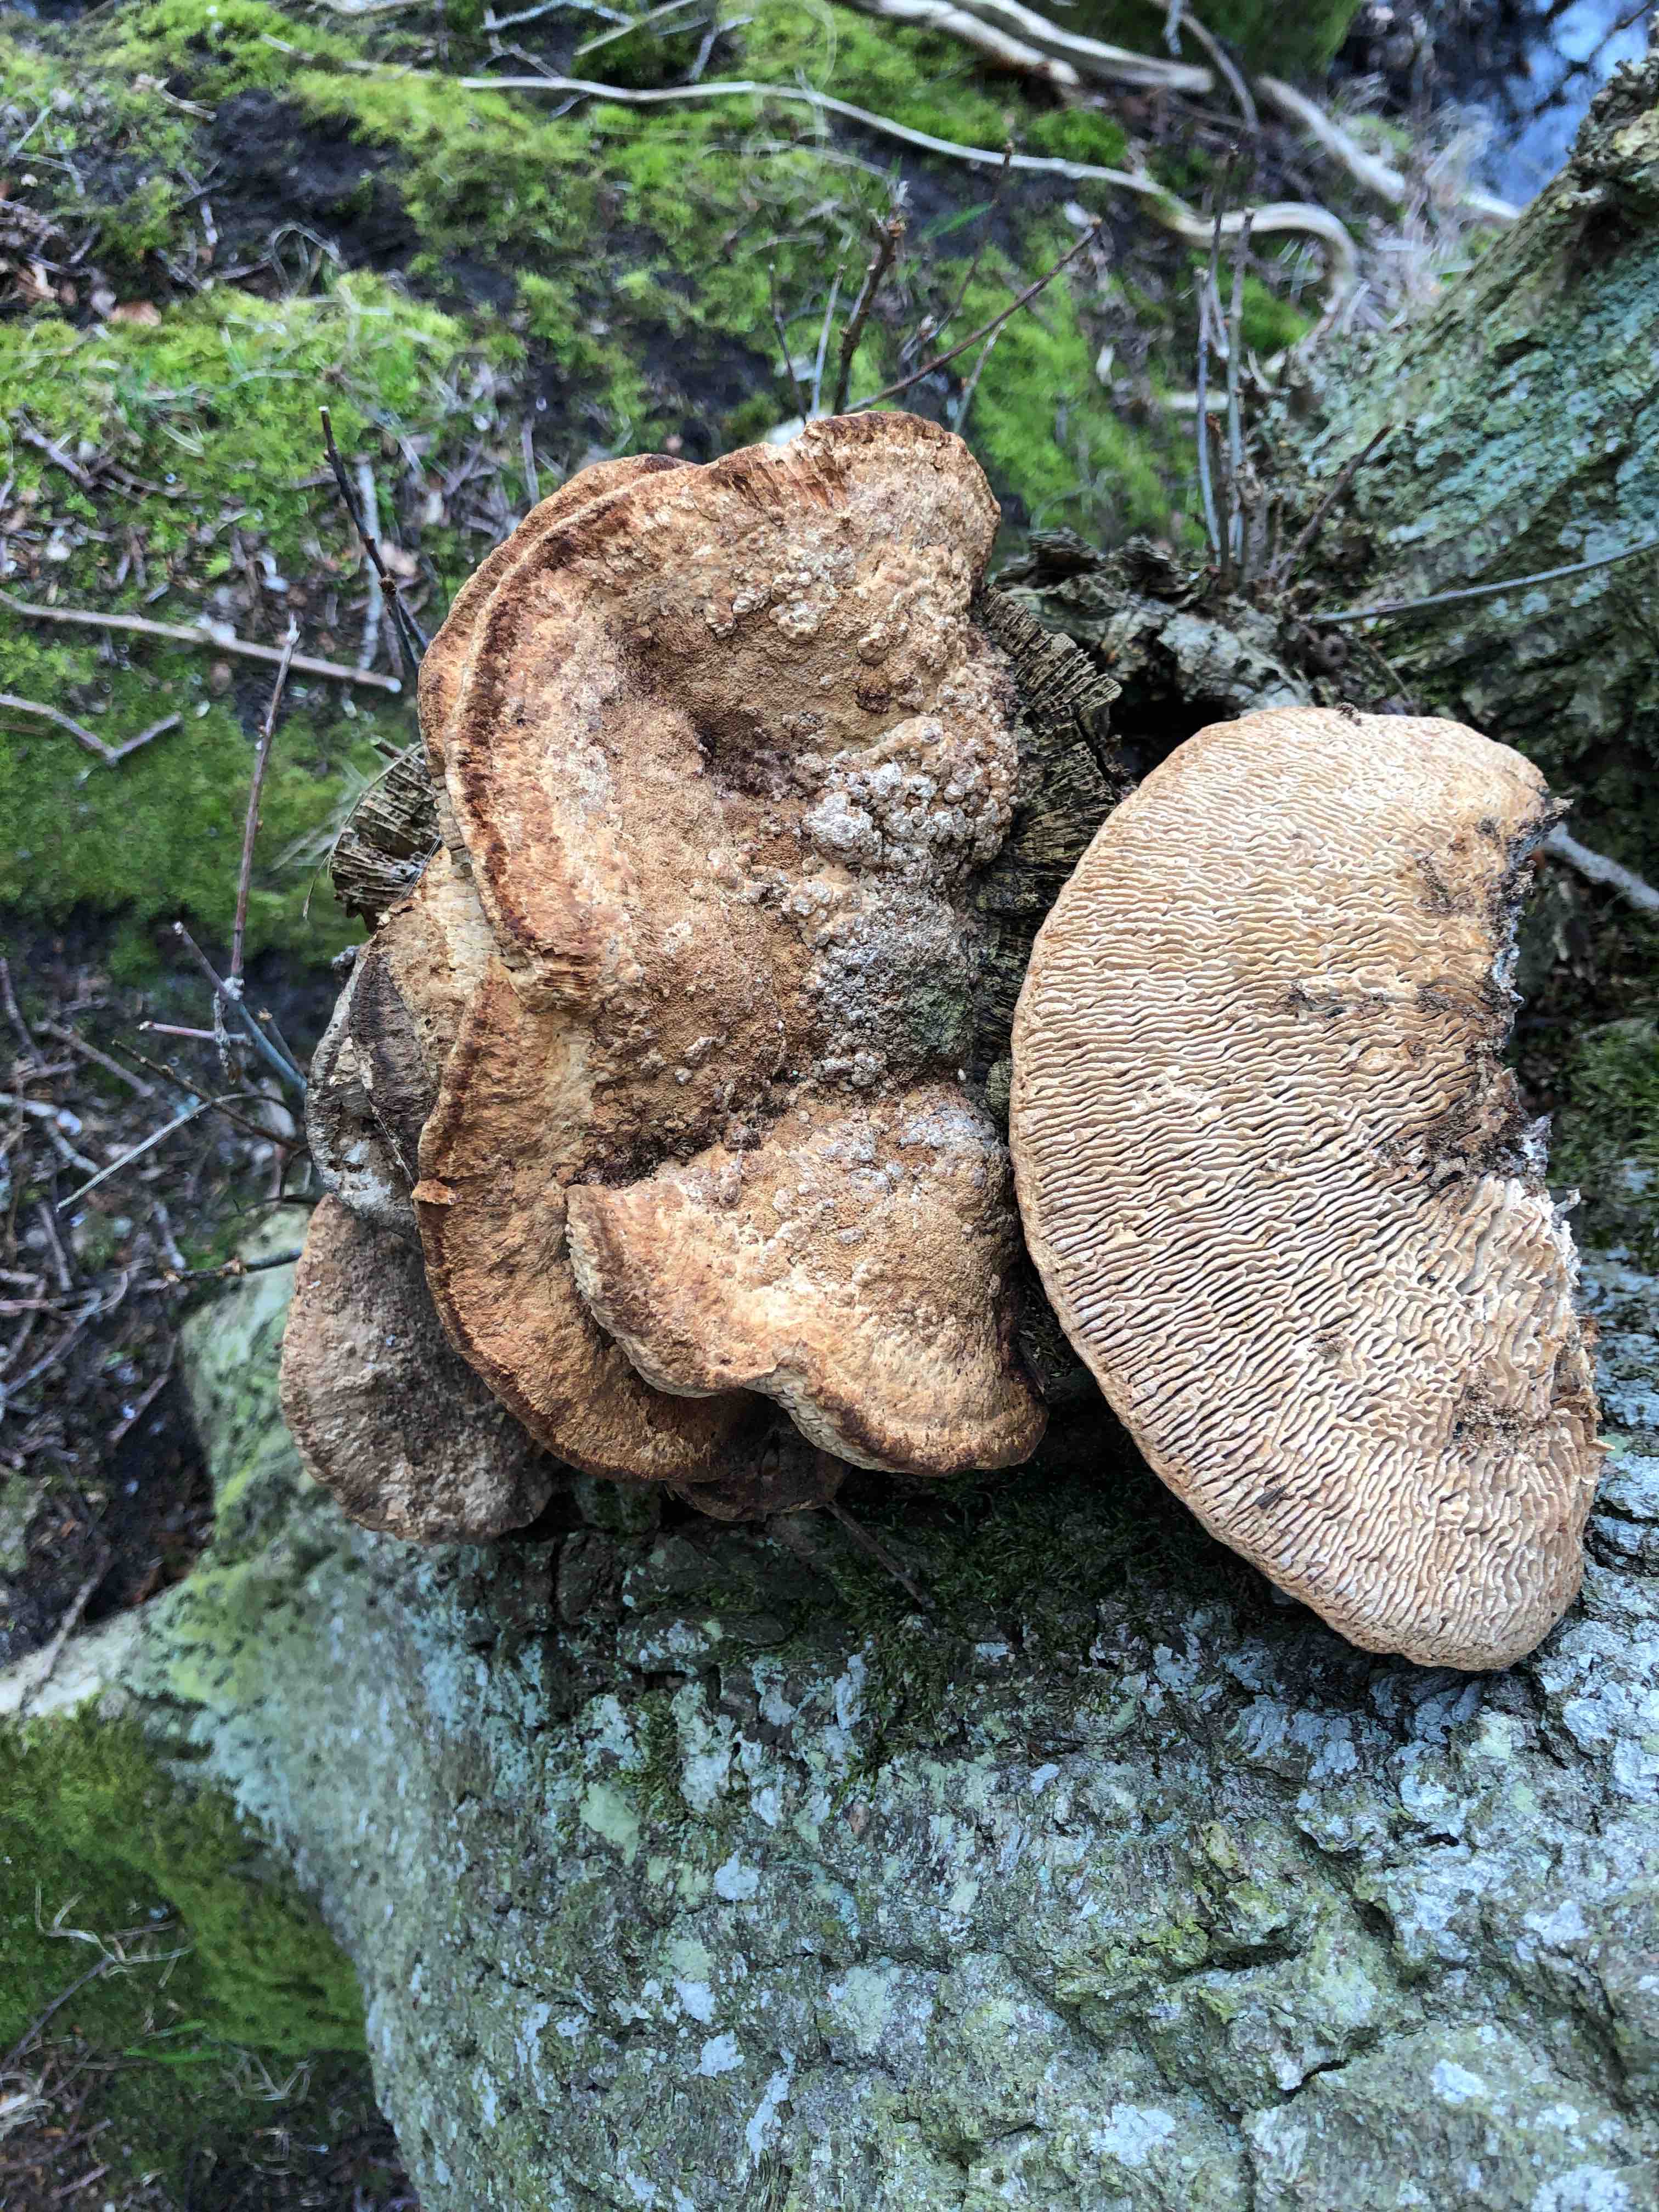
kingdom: Fungi
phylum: Basidiomycota
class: Agaricomycetes
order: Polyporales
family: Fomitopsidaceae
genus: Daedalea
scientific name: Daedalea quercina
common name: ege-labyrintsvamp
